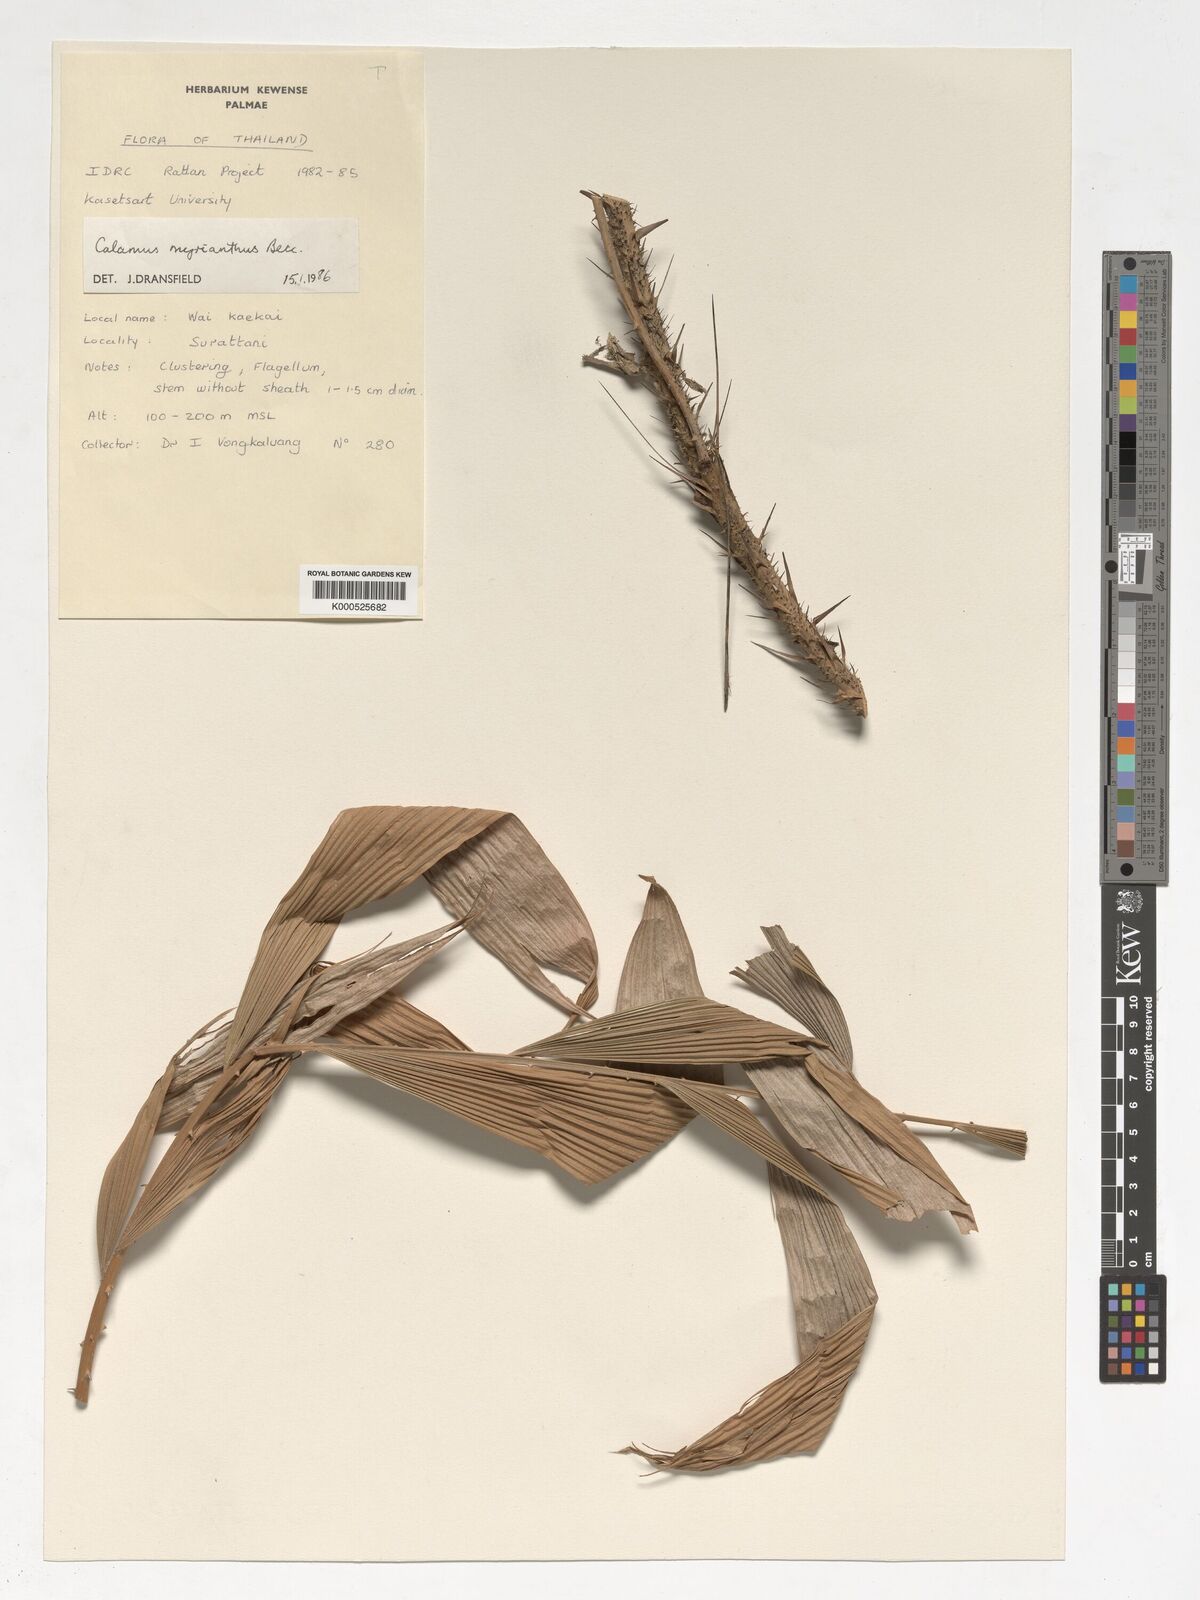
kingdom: Plantae
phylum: Tracheophyta
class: Liliopsida
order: Arecales
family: Arecaceae
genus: Calamus
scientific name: Calamus myrianthus
